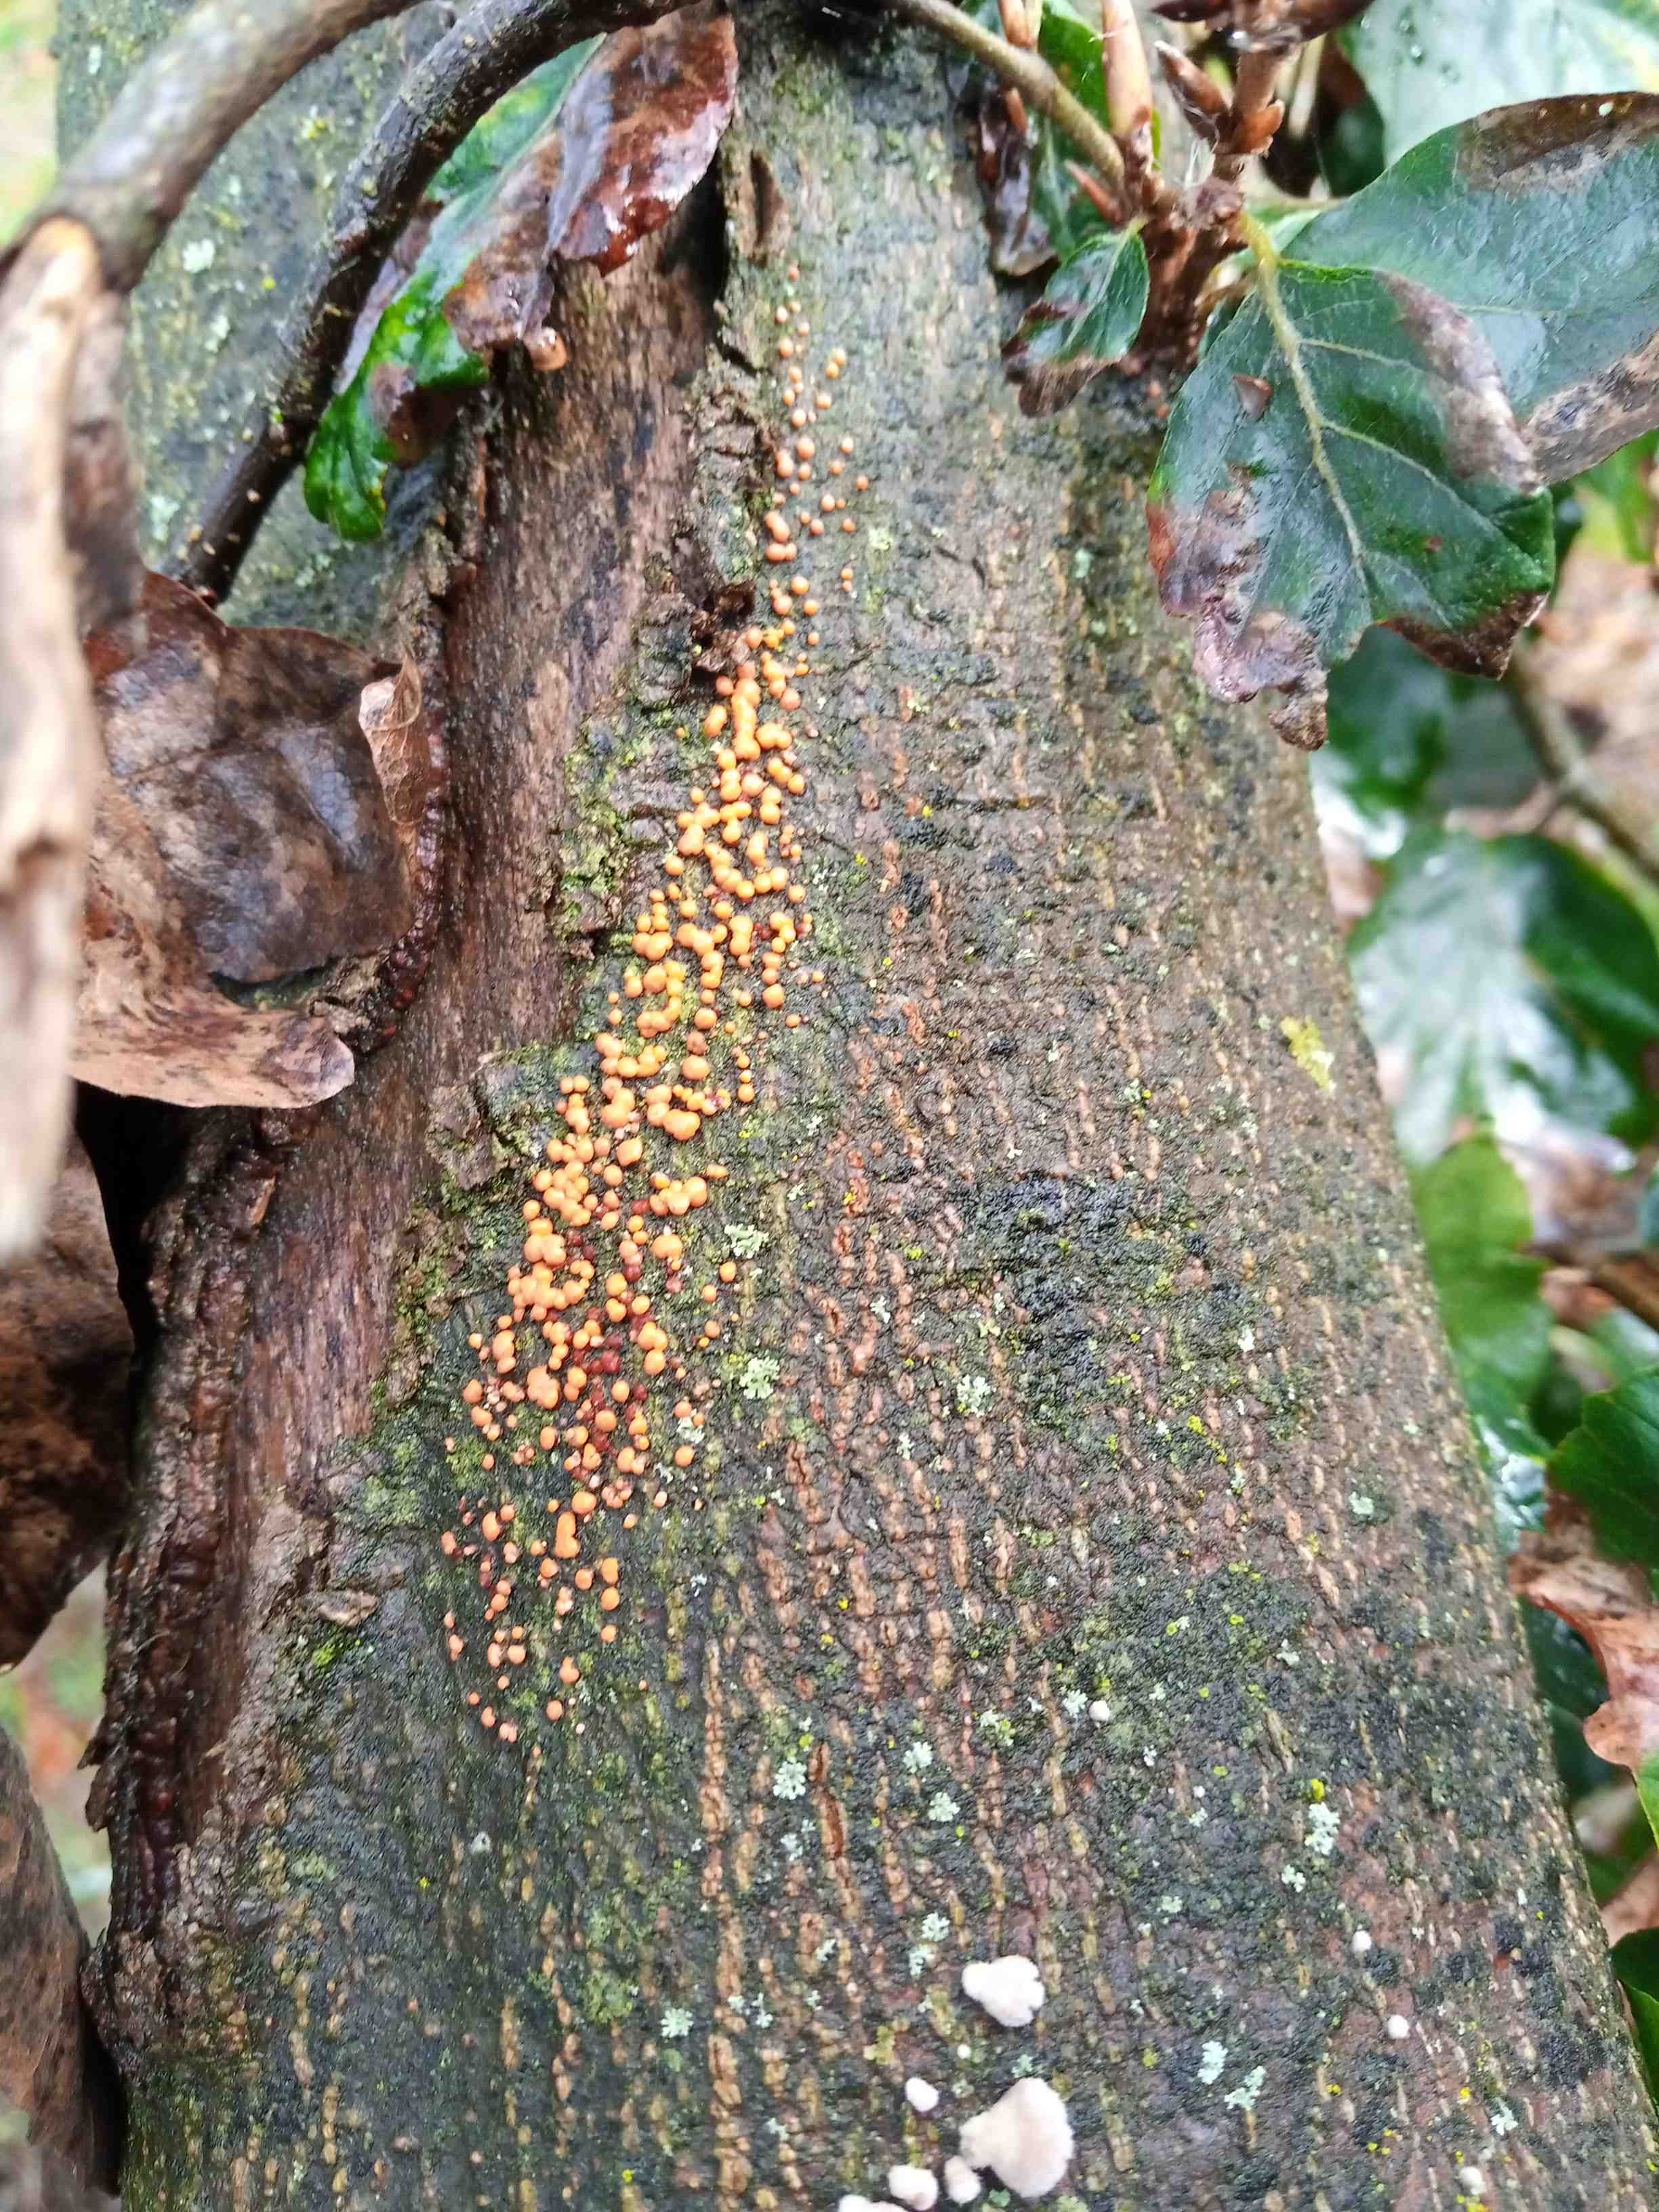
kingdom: Fungi
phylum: Ascomycota
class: Sordariomycetes
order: Hypocreales
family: Nectriaceae
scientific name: Nectriaceae
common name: cinnobersvampfamilien
